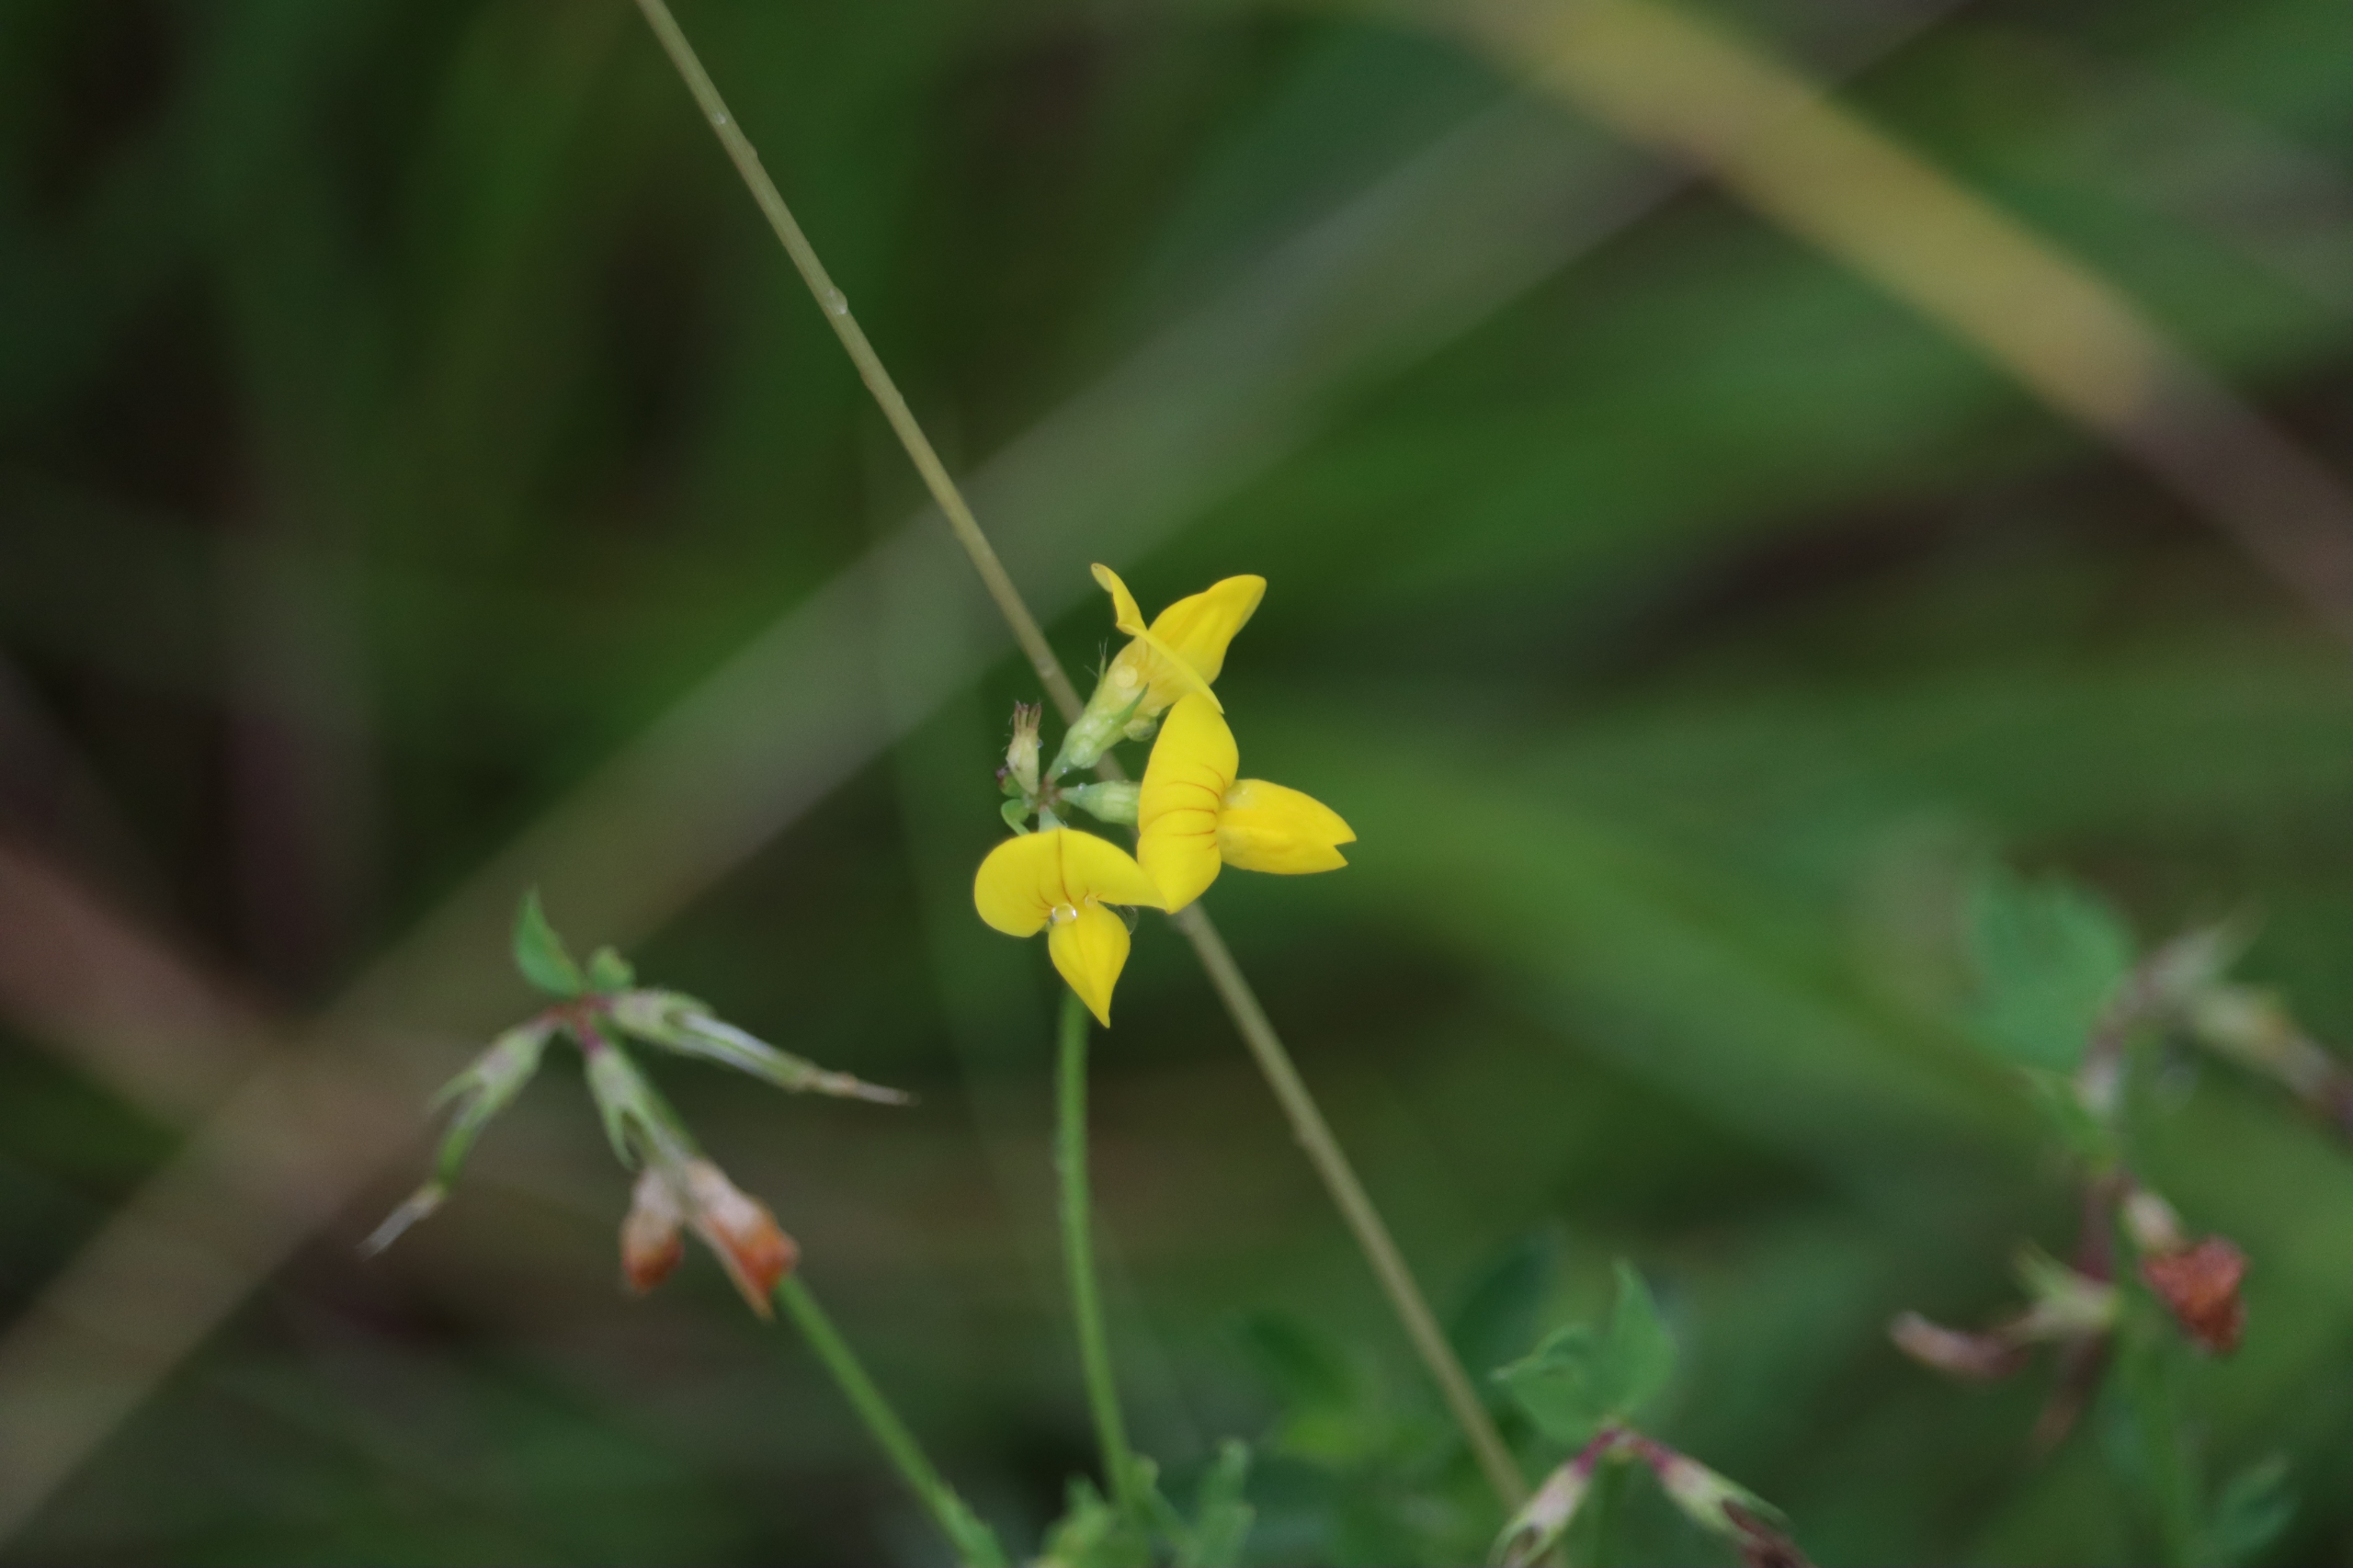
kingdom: Plantae
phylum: Tracheophyta
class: Magnoliopsida
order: Fabales
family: Fabaceae
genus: Lotus
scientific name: Lotus corniculatus
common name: Almindelig kællingetand
